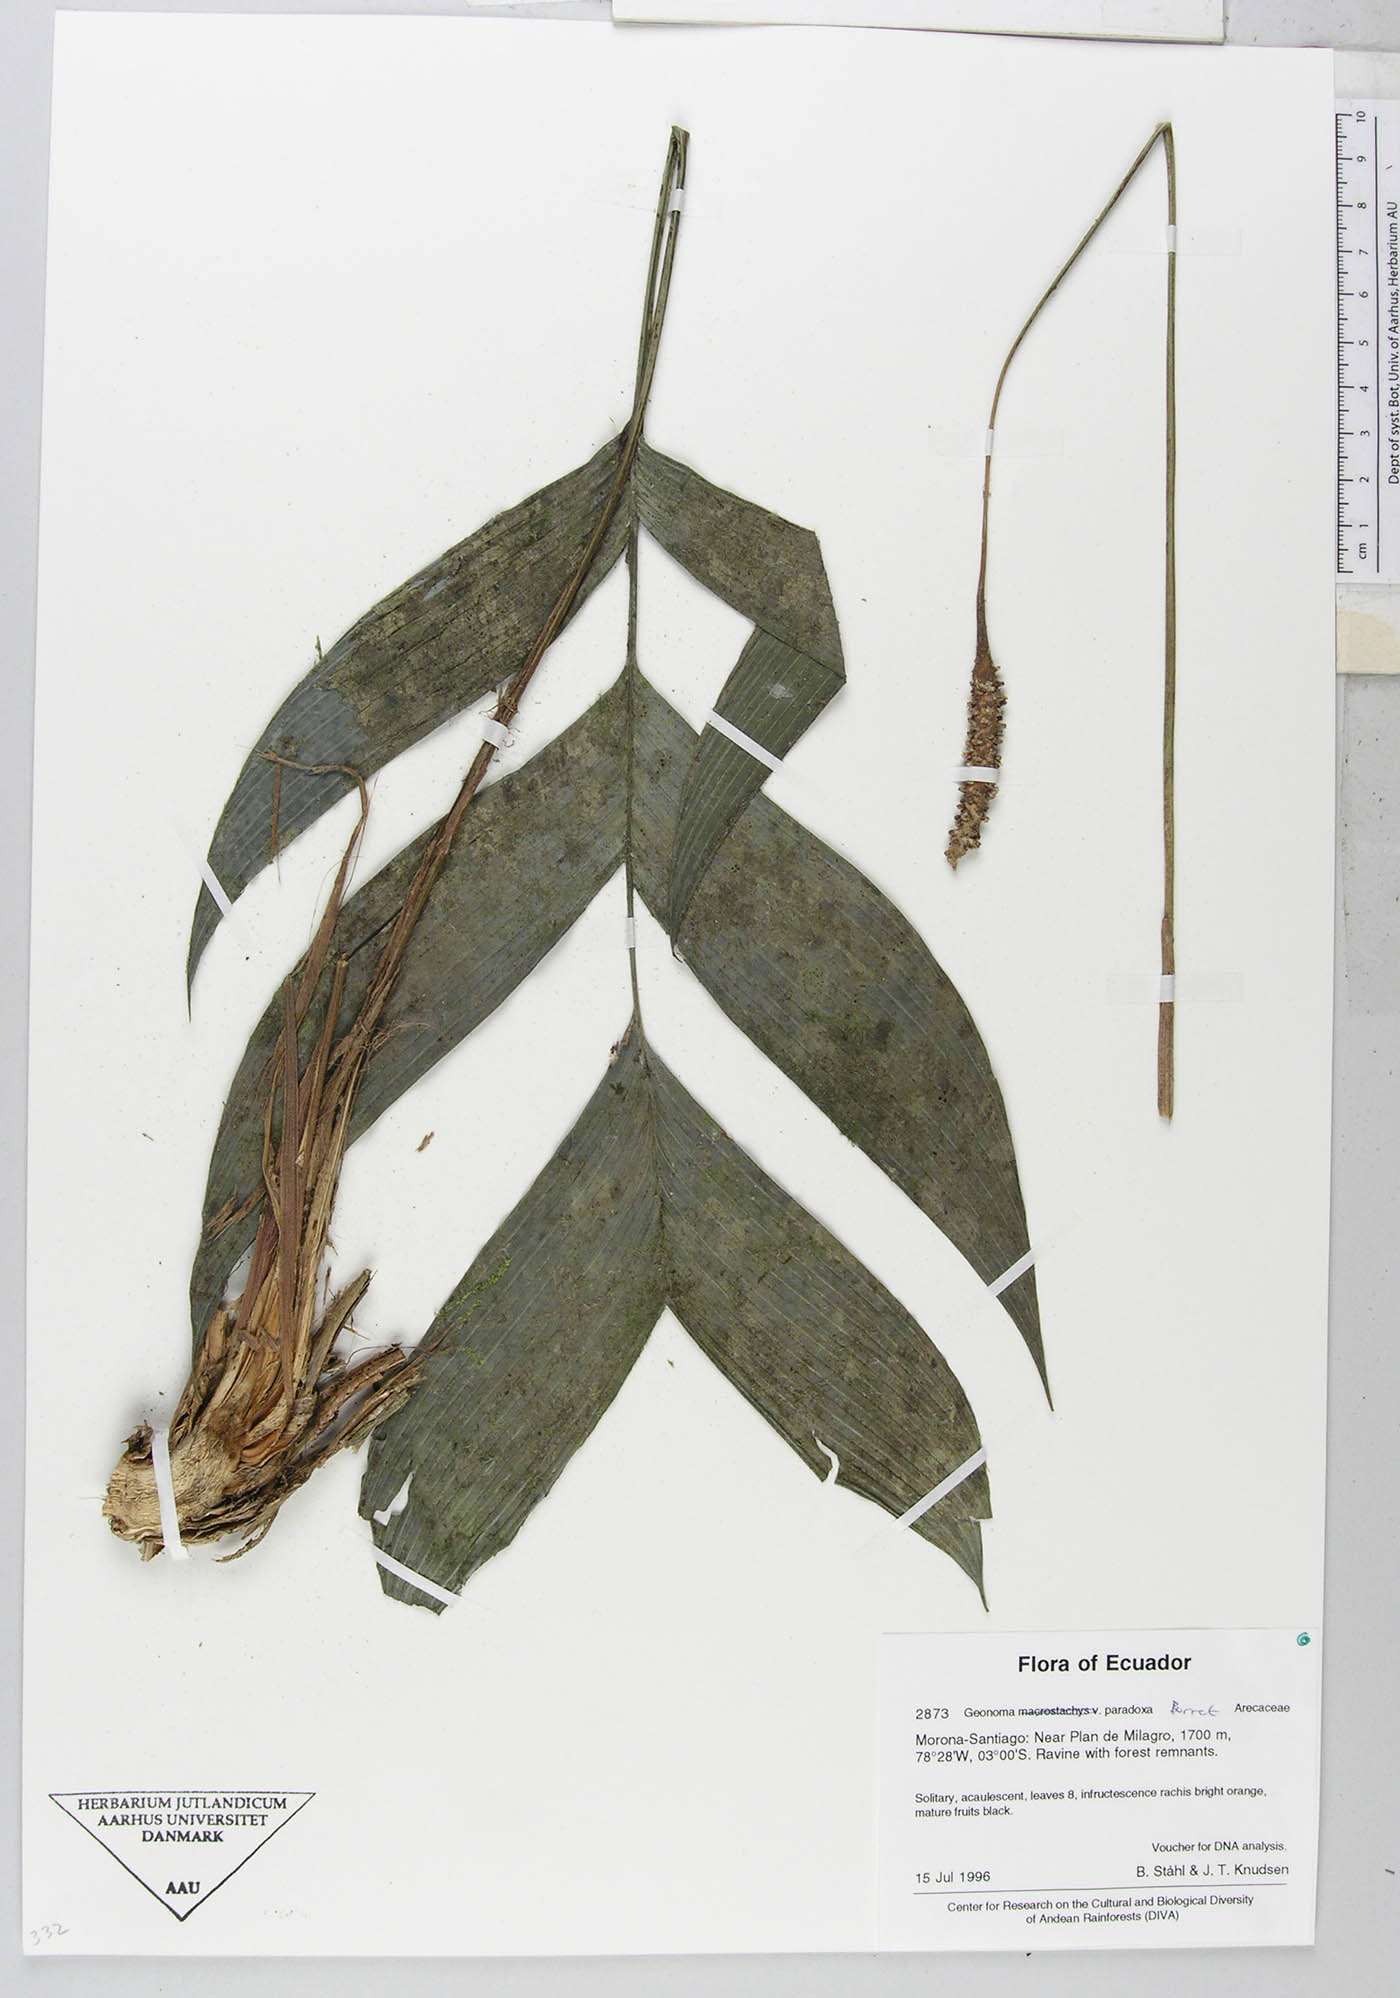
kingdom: Plantae
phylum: Tracheophyta
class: Liliopsida
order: Arecales
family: Arecaceae
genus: Geonoma
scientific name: Geonoma macrostachys
